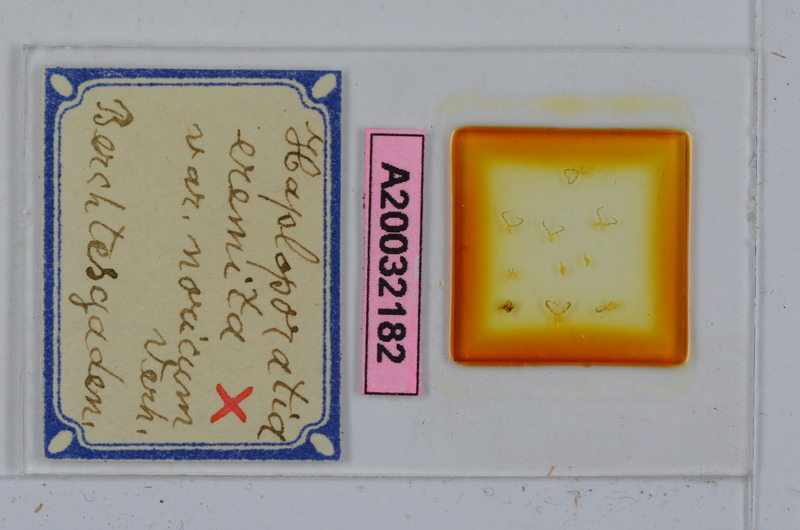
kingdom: Animalia
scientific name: Animalia
